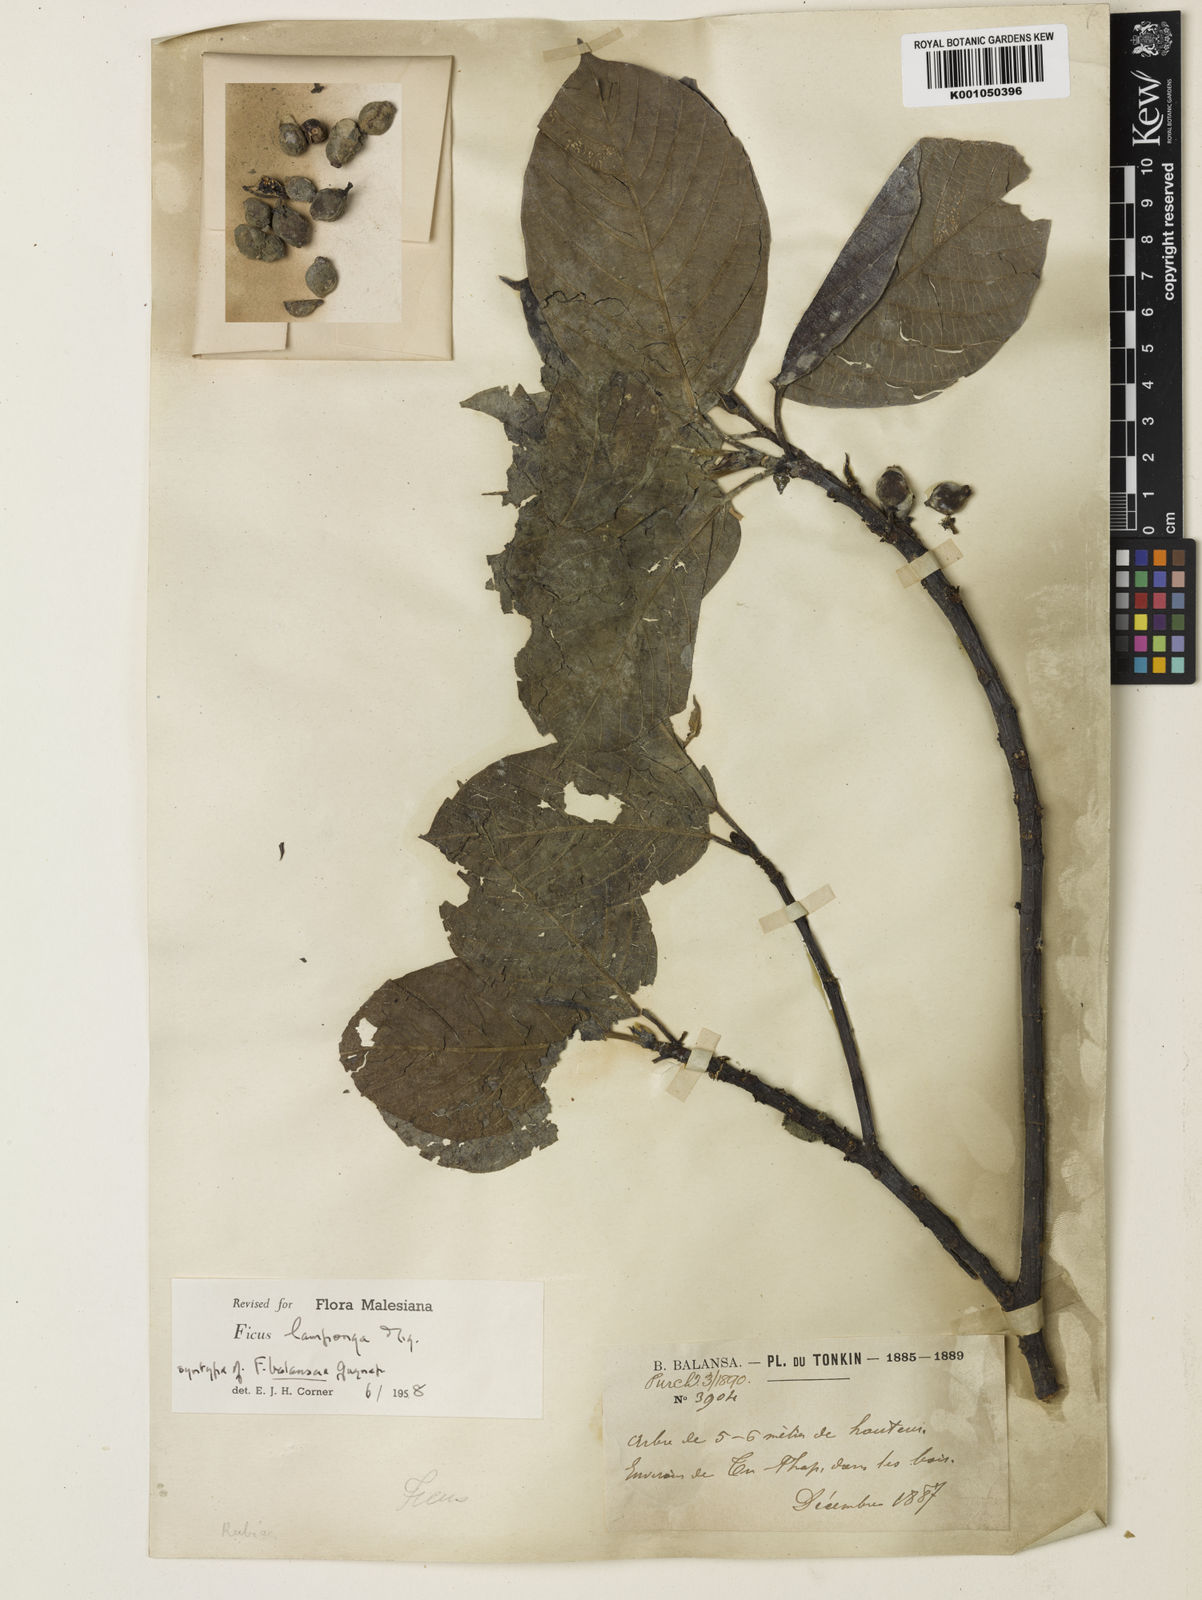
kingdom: Plantae
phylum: Tracheophyta
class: Magnoliopsida
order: Rosales
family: Moraceae
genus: Ficus
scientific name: Ficus lamponga
